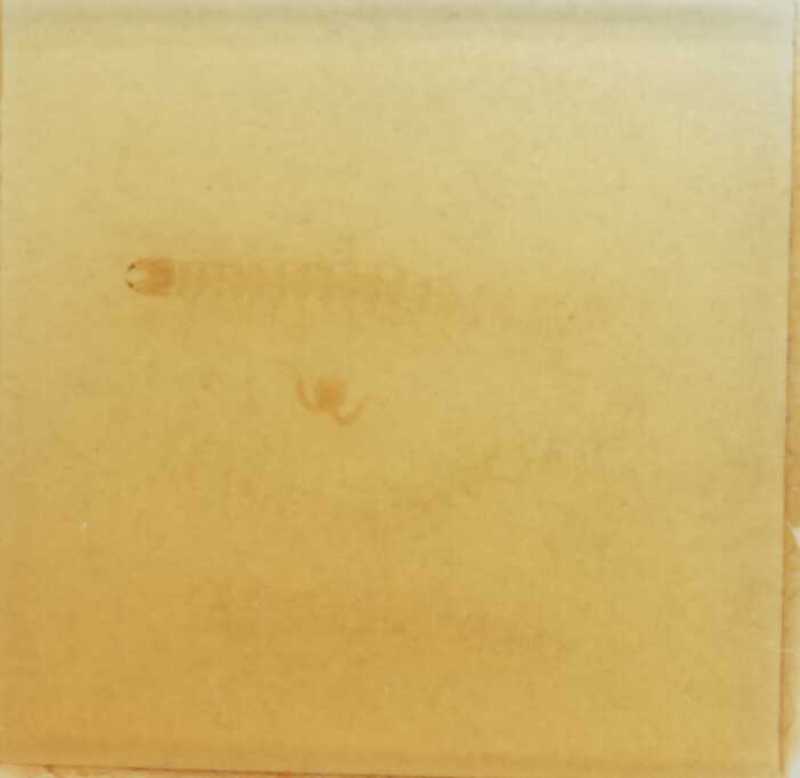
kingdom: Animalia
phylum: Arthropoda
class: Chilopoda
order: Geophilomorpha
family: Geophilidae
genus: Geophilus
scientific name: Geophilus flavus
